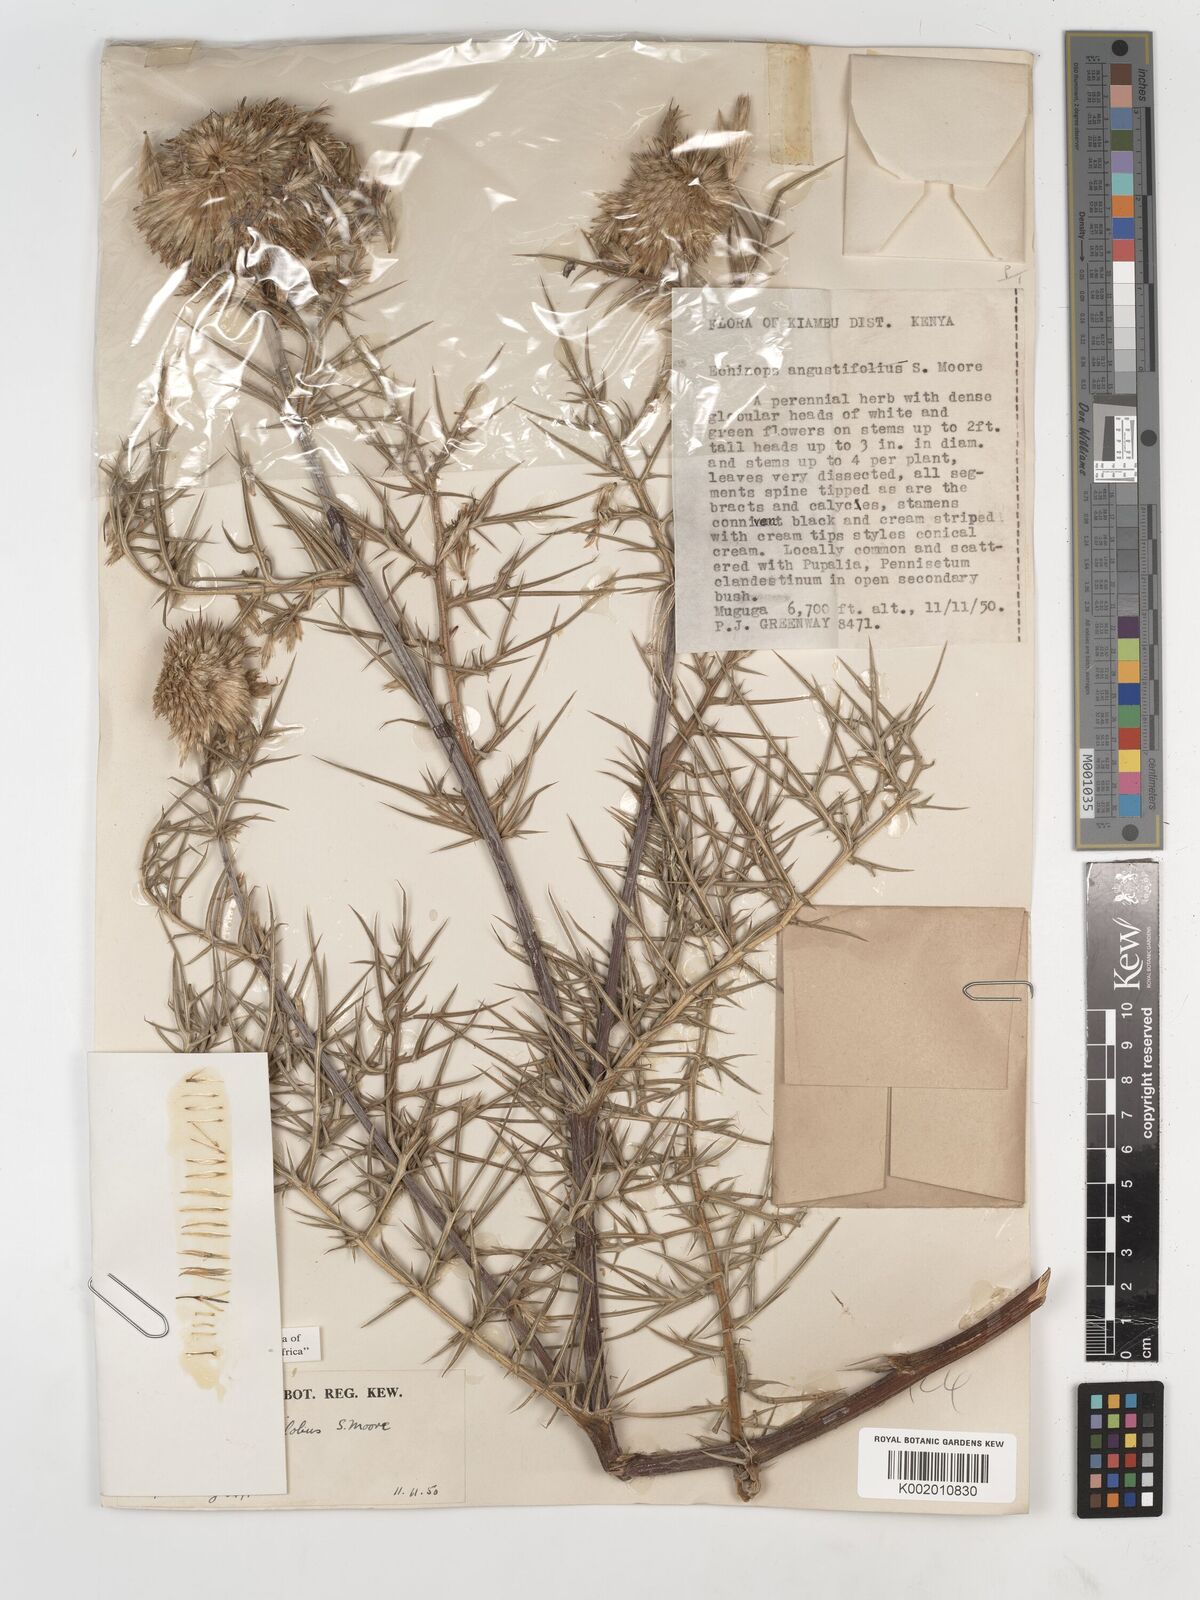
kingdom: Plantae
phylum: Tracheophyta
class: Magnoliopsida
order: Asterales
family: Asteraceae
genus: Echinops
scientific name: Echinops angustilobus
